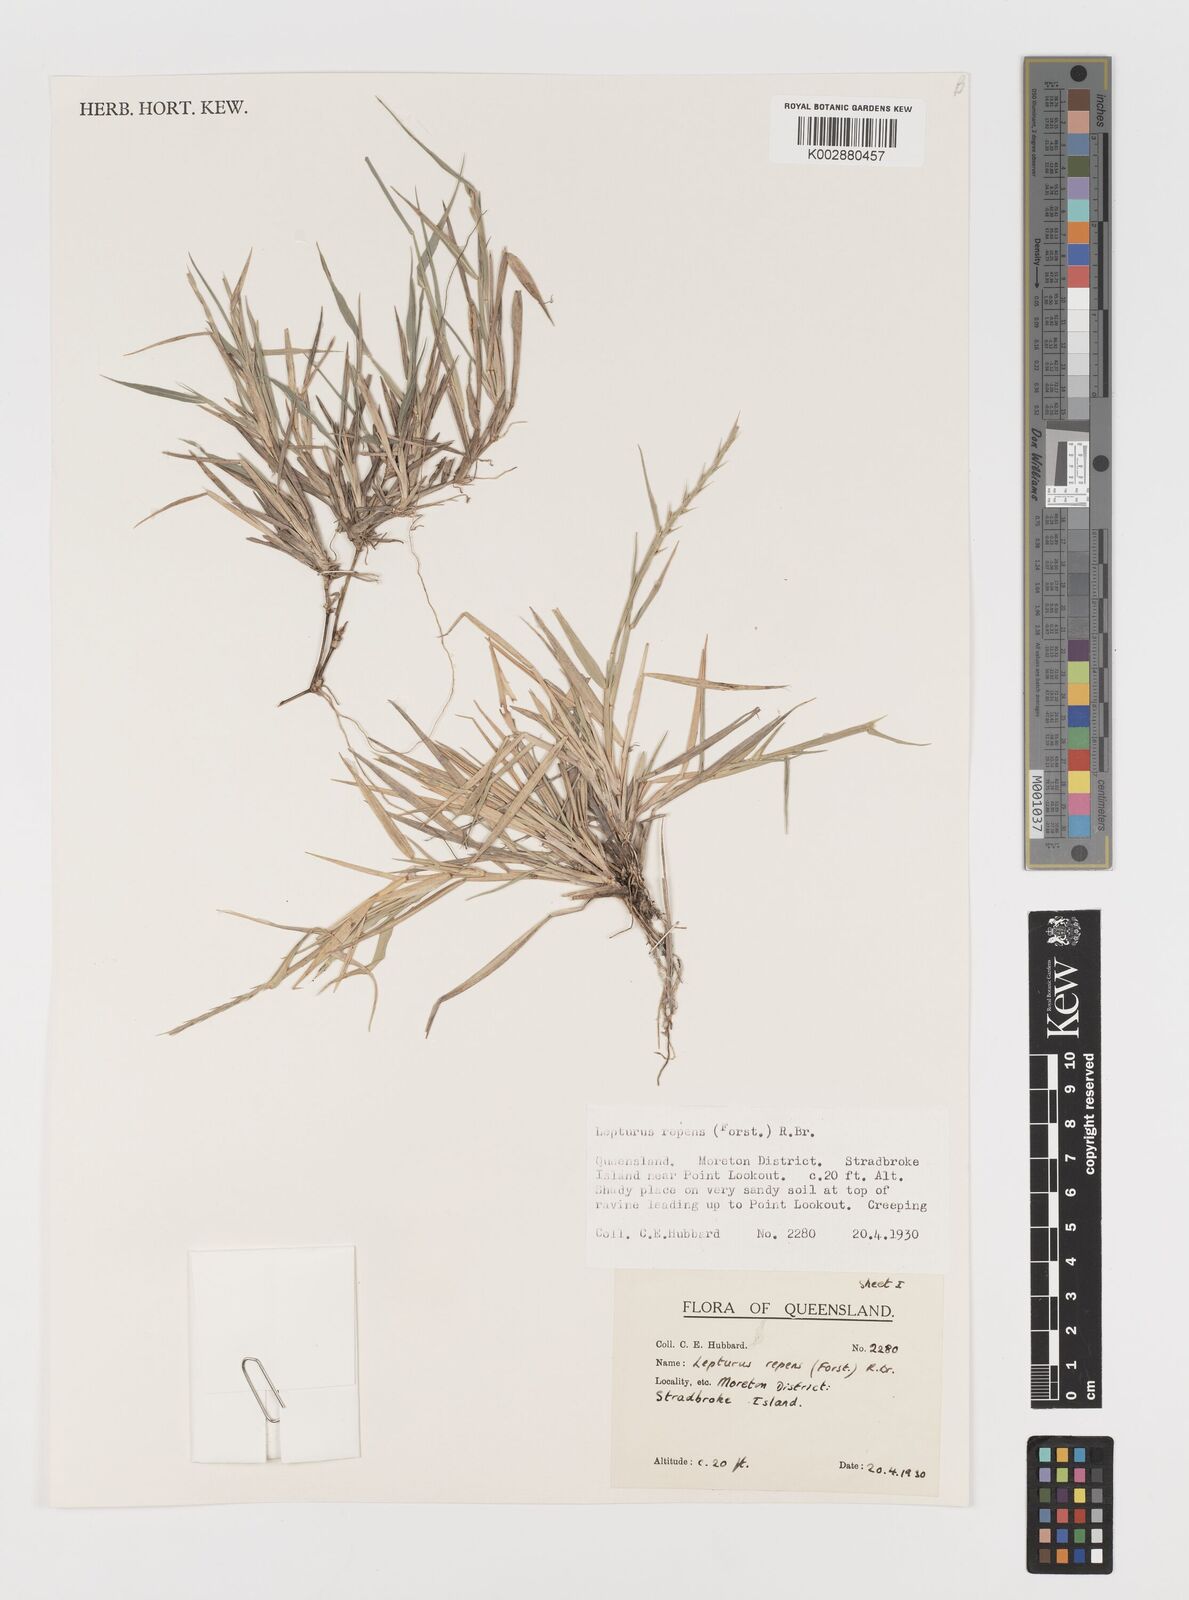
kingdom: Plantae
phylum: Tracheophyta
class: Liliopsida
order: Poales
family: Poaceae
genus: Lepturus
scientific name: Lepturus repens
